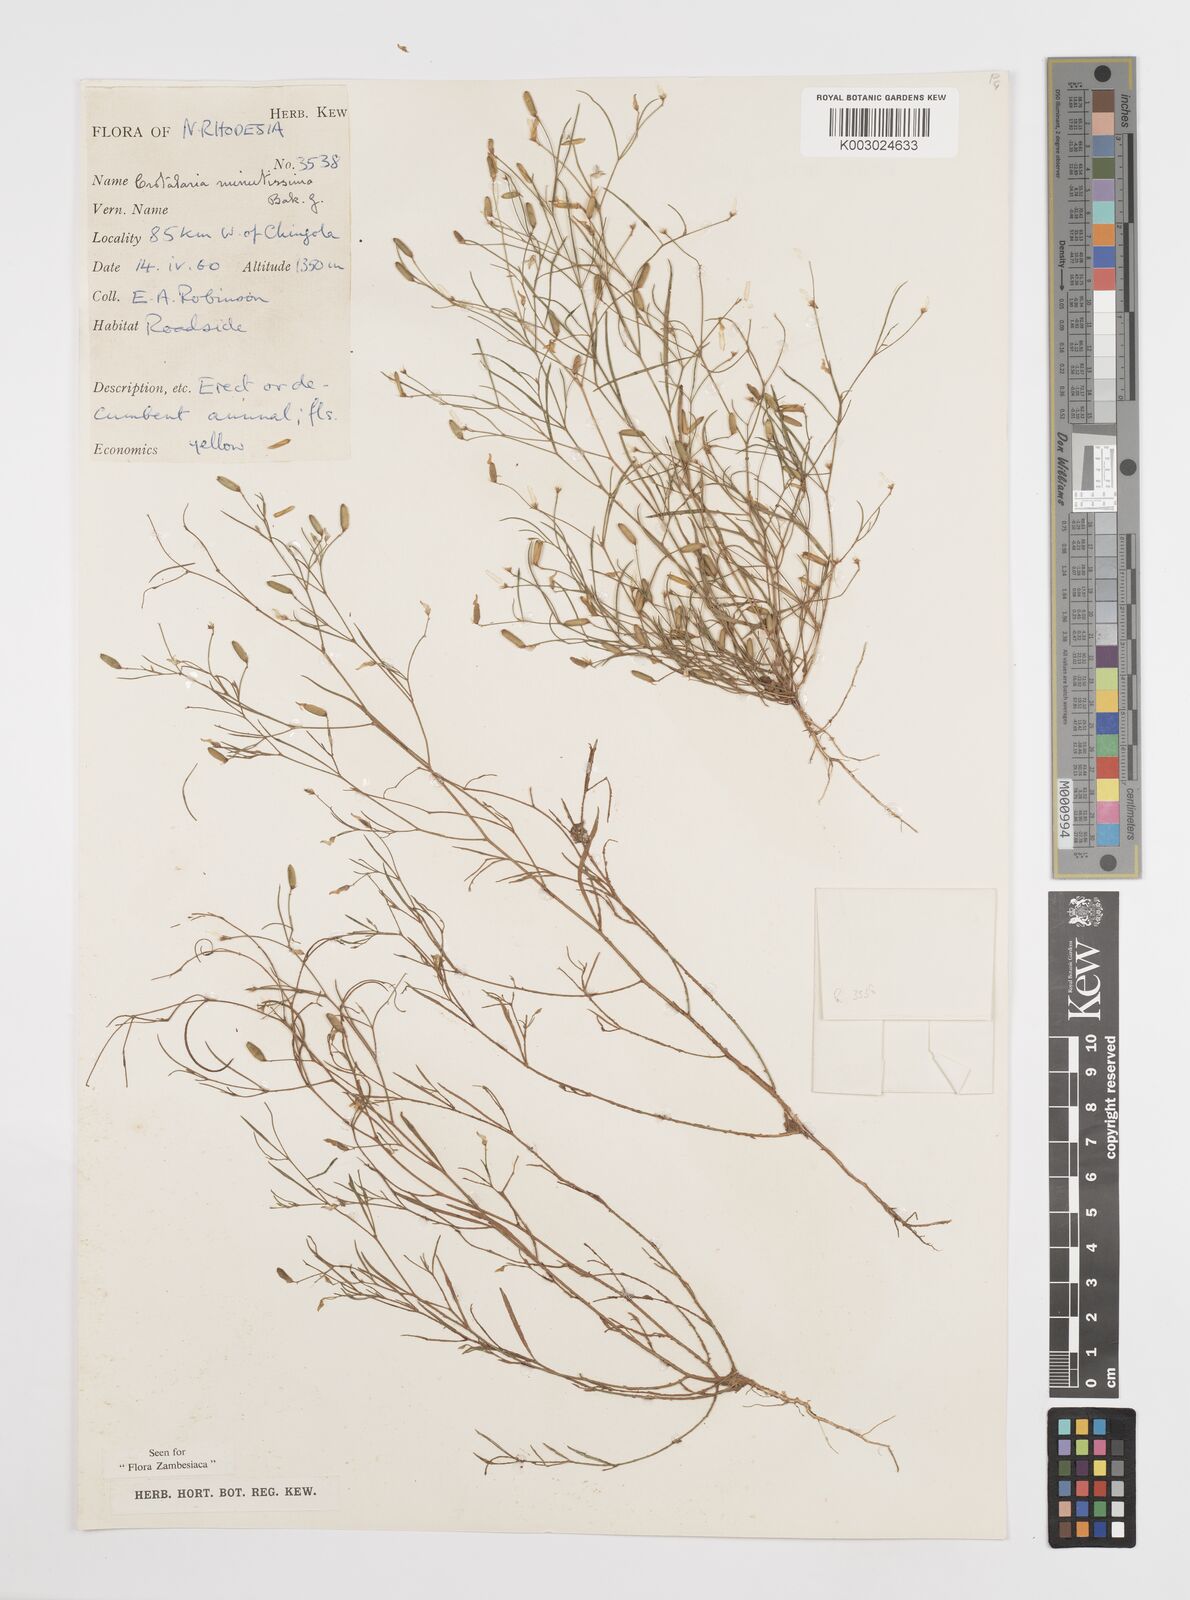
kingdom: Plantae
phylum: Tracheophyta
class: Magnoliopsida
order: Fabales
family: Fabaceae
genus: Crotalaria
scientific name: Crotalaria minutissima
